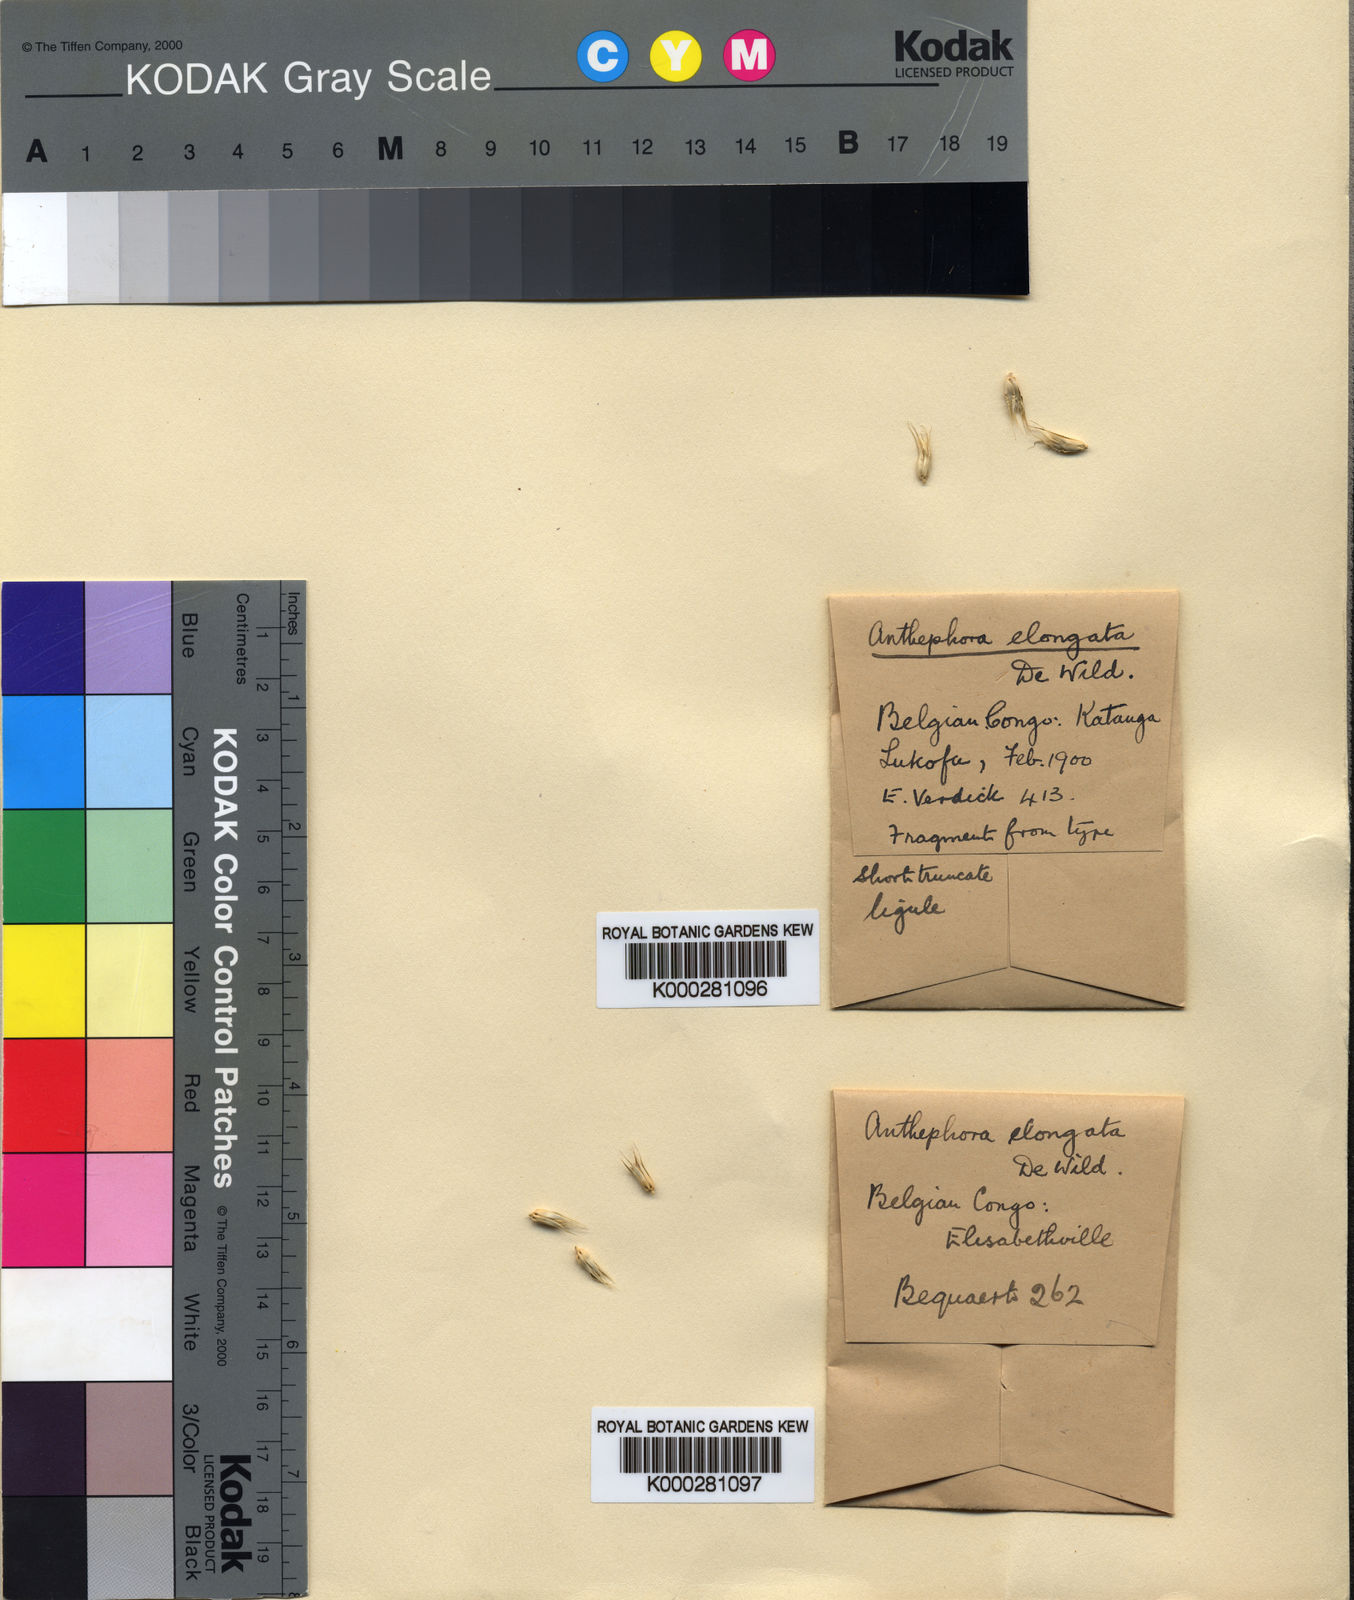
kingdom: Plantae
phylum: Tracheophyta
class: Liliopsida
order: Poales
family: Poaceae
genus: Anthephora
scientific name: Anthephora elongata
